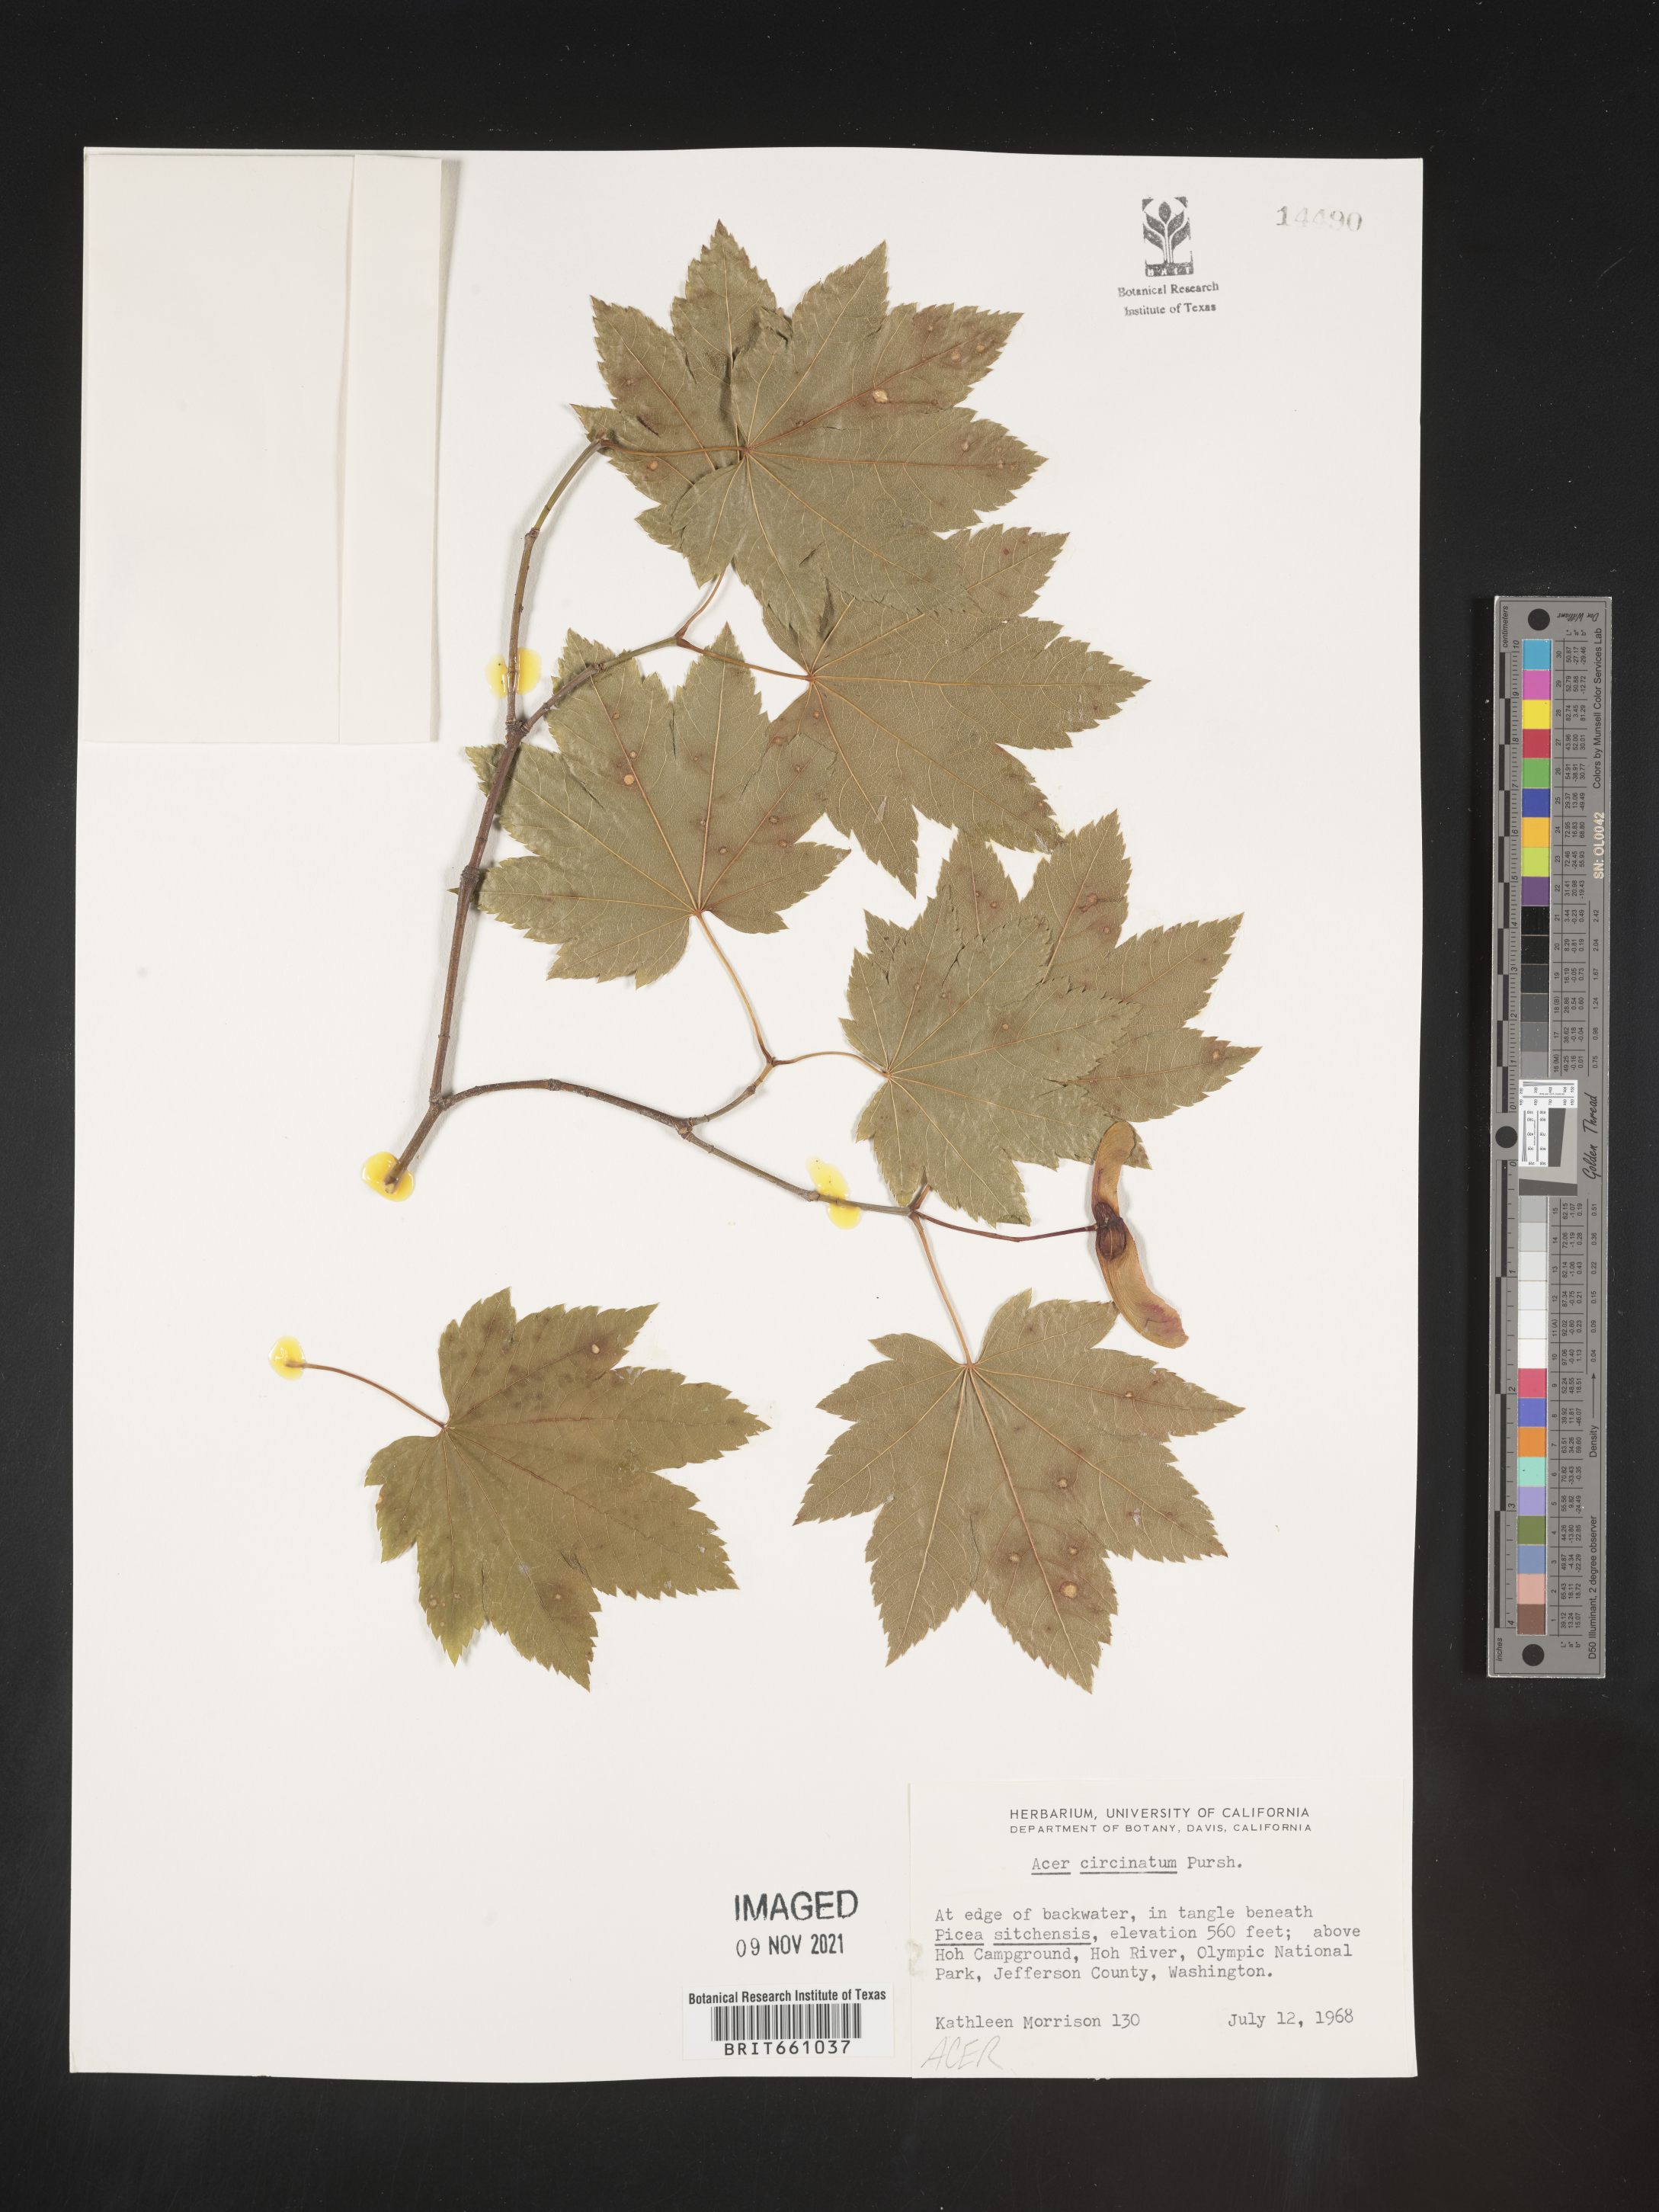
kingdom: Plantae
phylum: Tracheophyta
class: Magnoliopsida
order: Sapindales
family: Sapindaceae
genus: Acer
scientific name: Acer circinatum
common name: Vine maple
